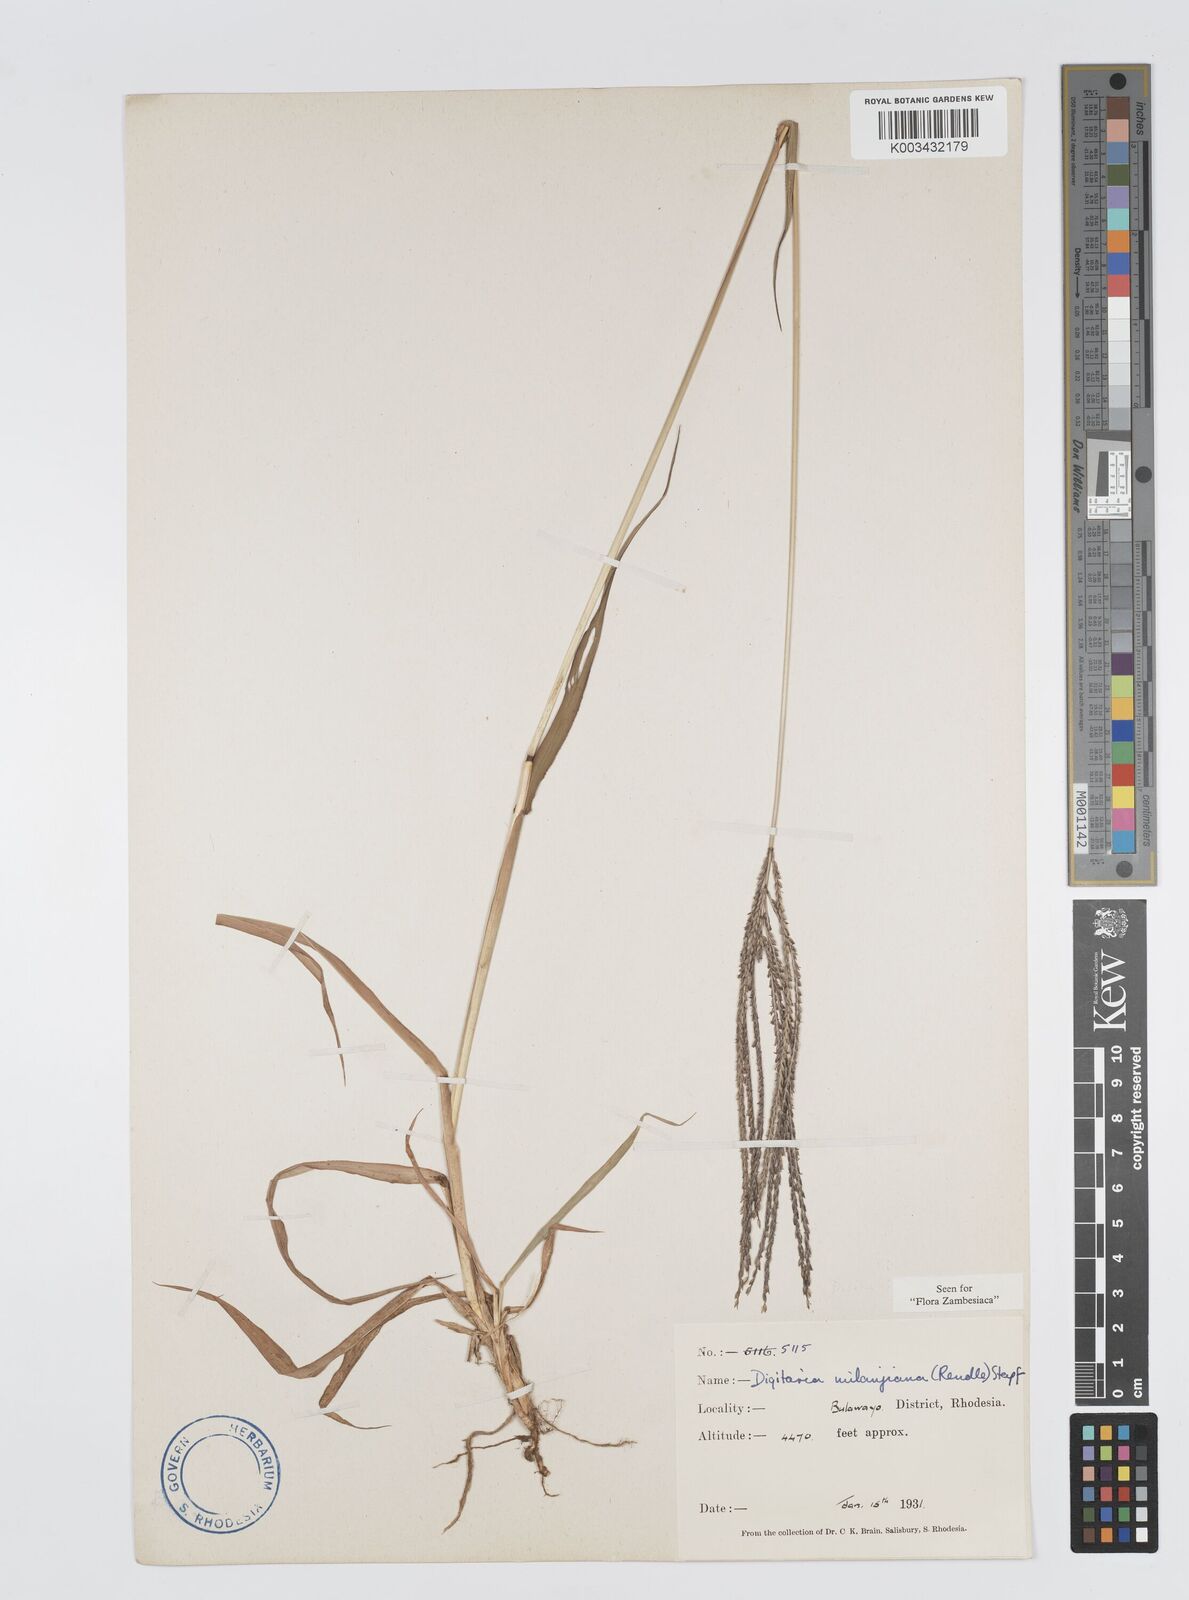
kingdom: Plantae
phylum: Tracheophyta
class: Liliopsida
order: Poales
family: Poaceae
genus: Digitaria
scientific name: Digitaria milanjiana
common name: Madagascar crabgrass
